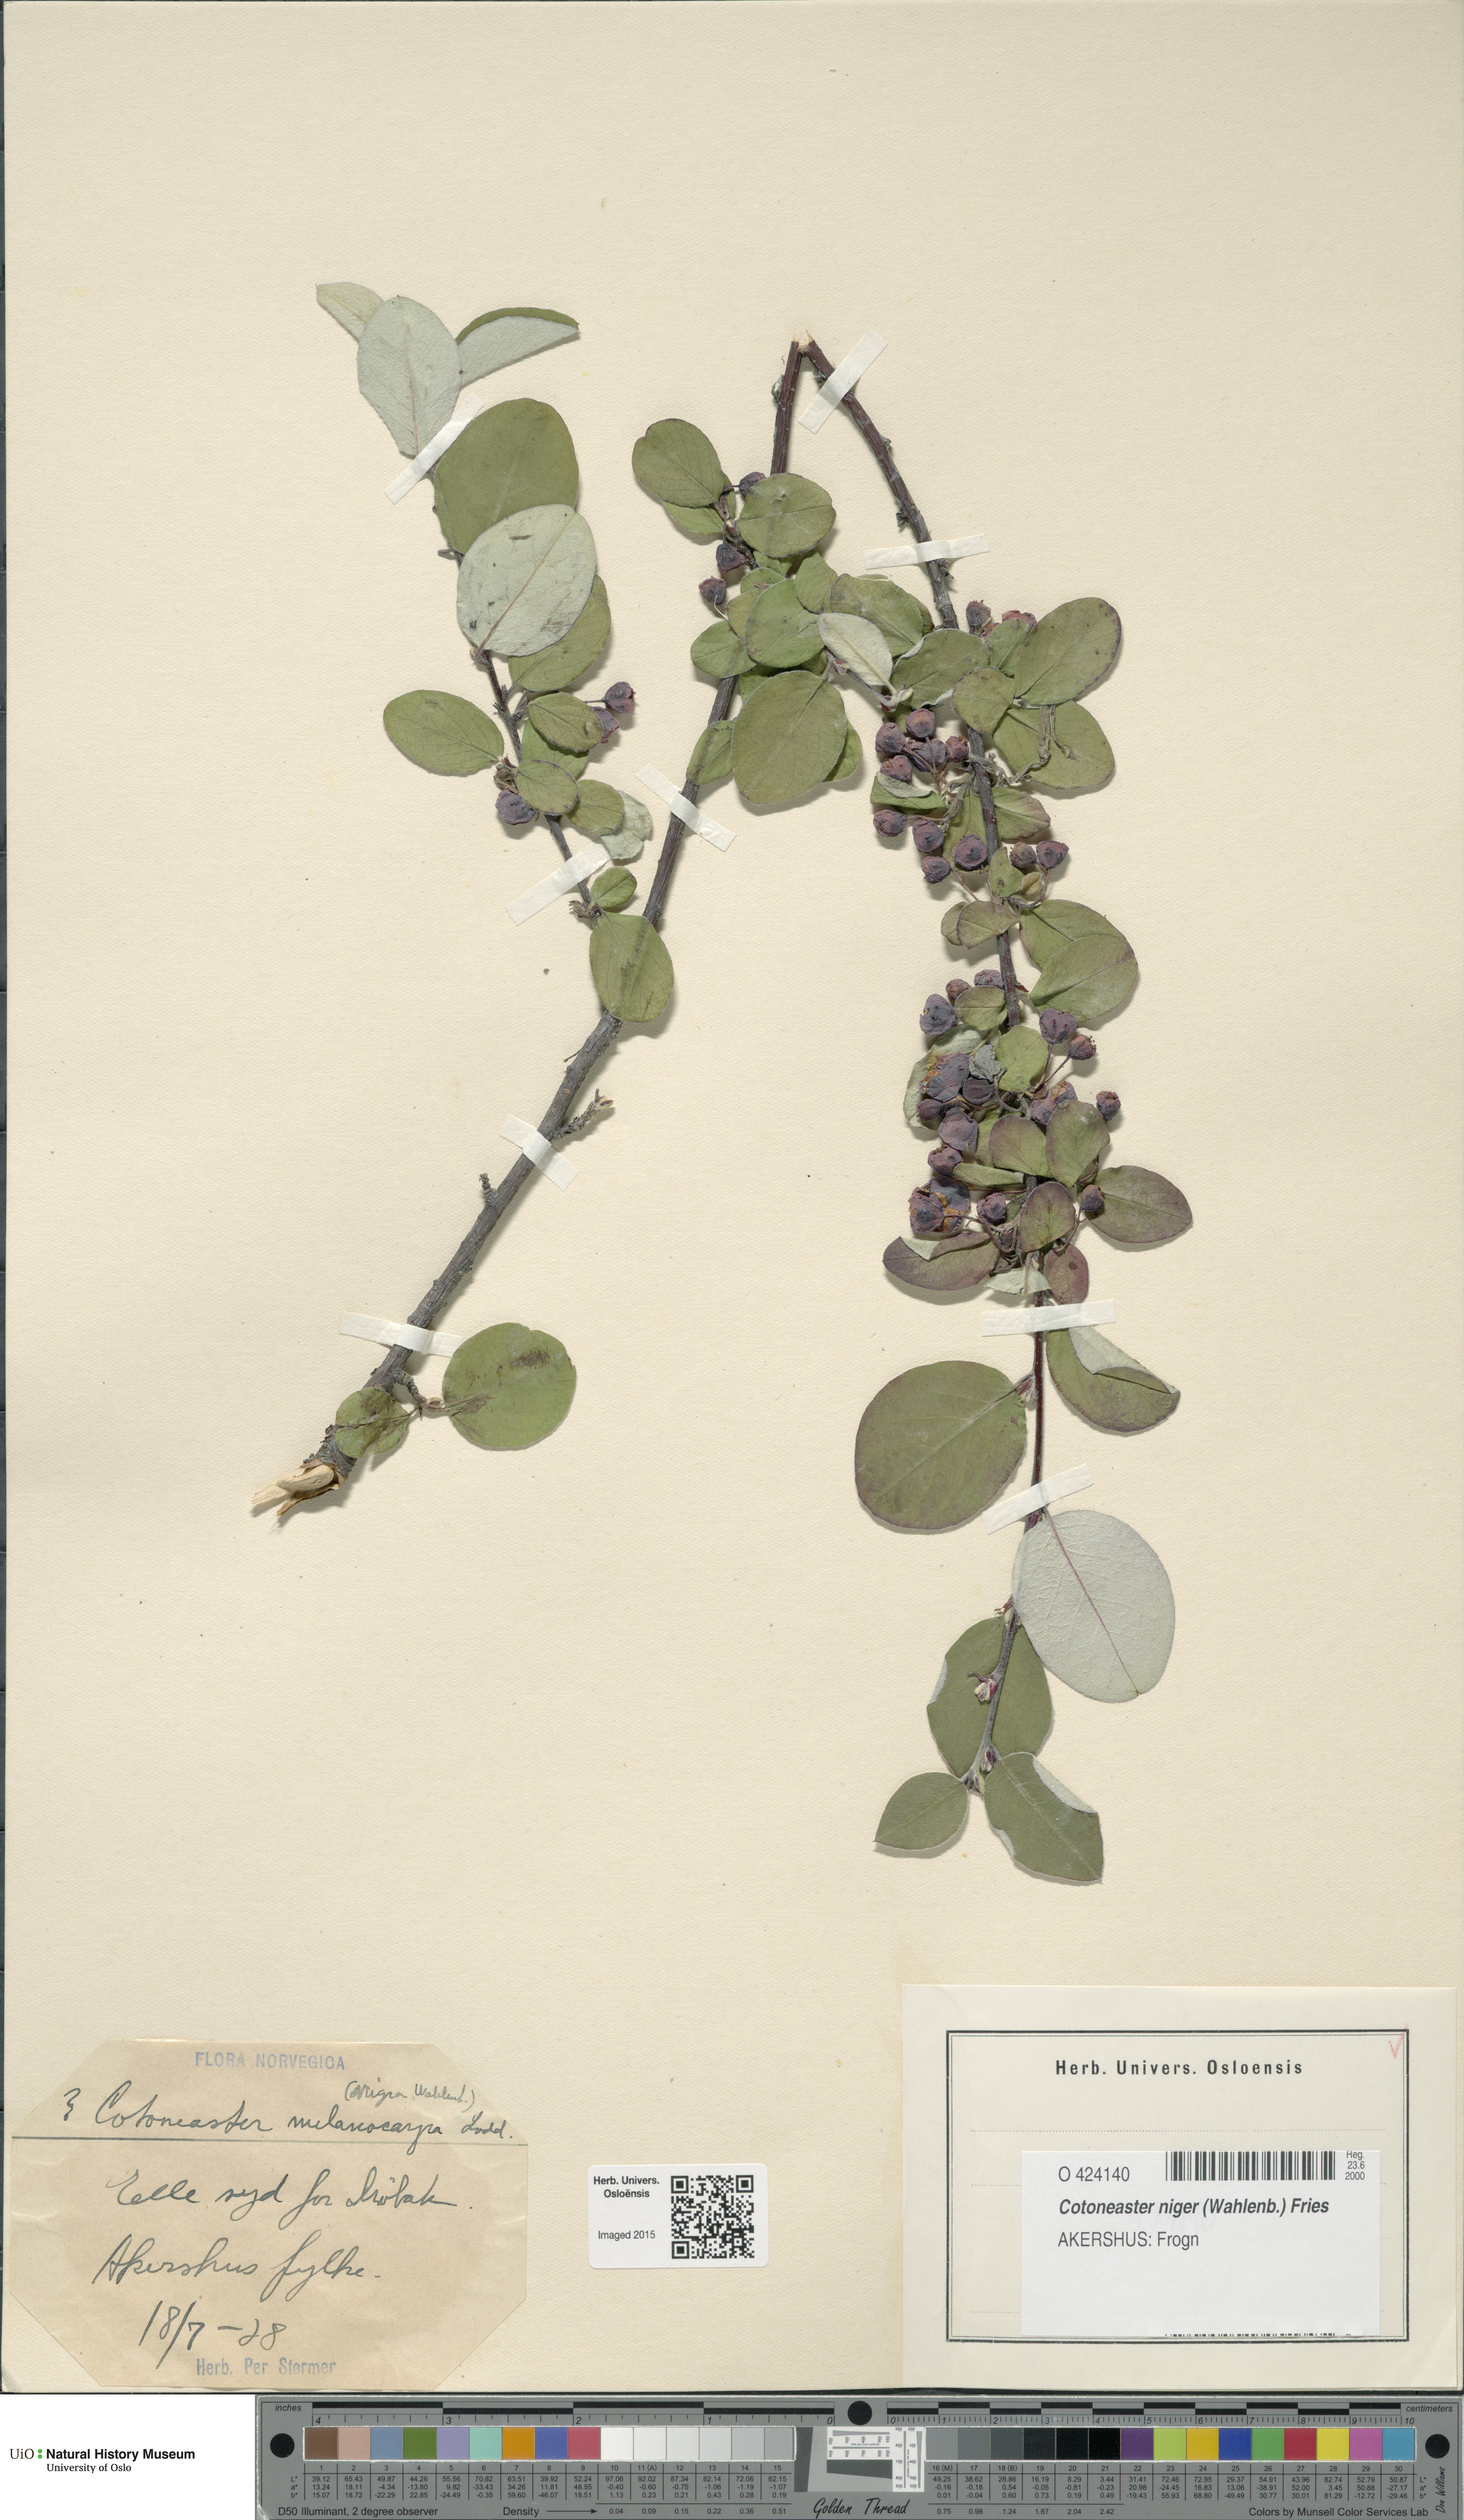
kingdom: Plantae
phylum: Tracheophyta
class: Magnoliopsida
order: Rosales
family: Rosaceae
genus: Cotoneaster
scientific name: Cotoneaster niger
